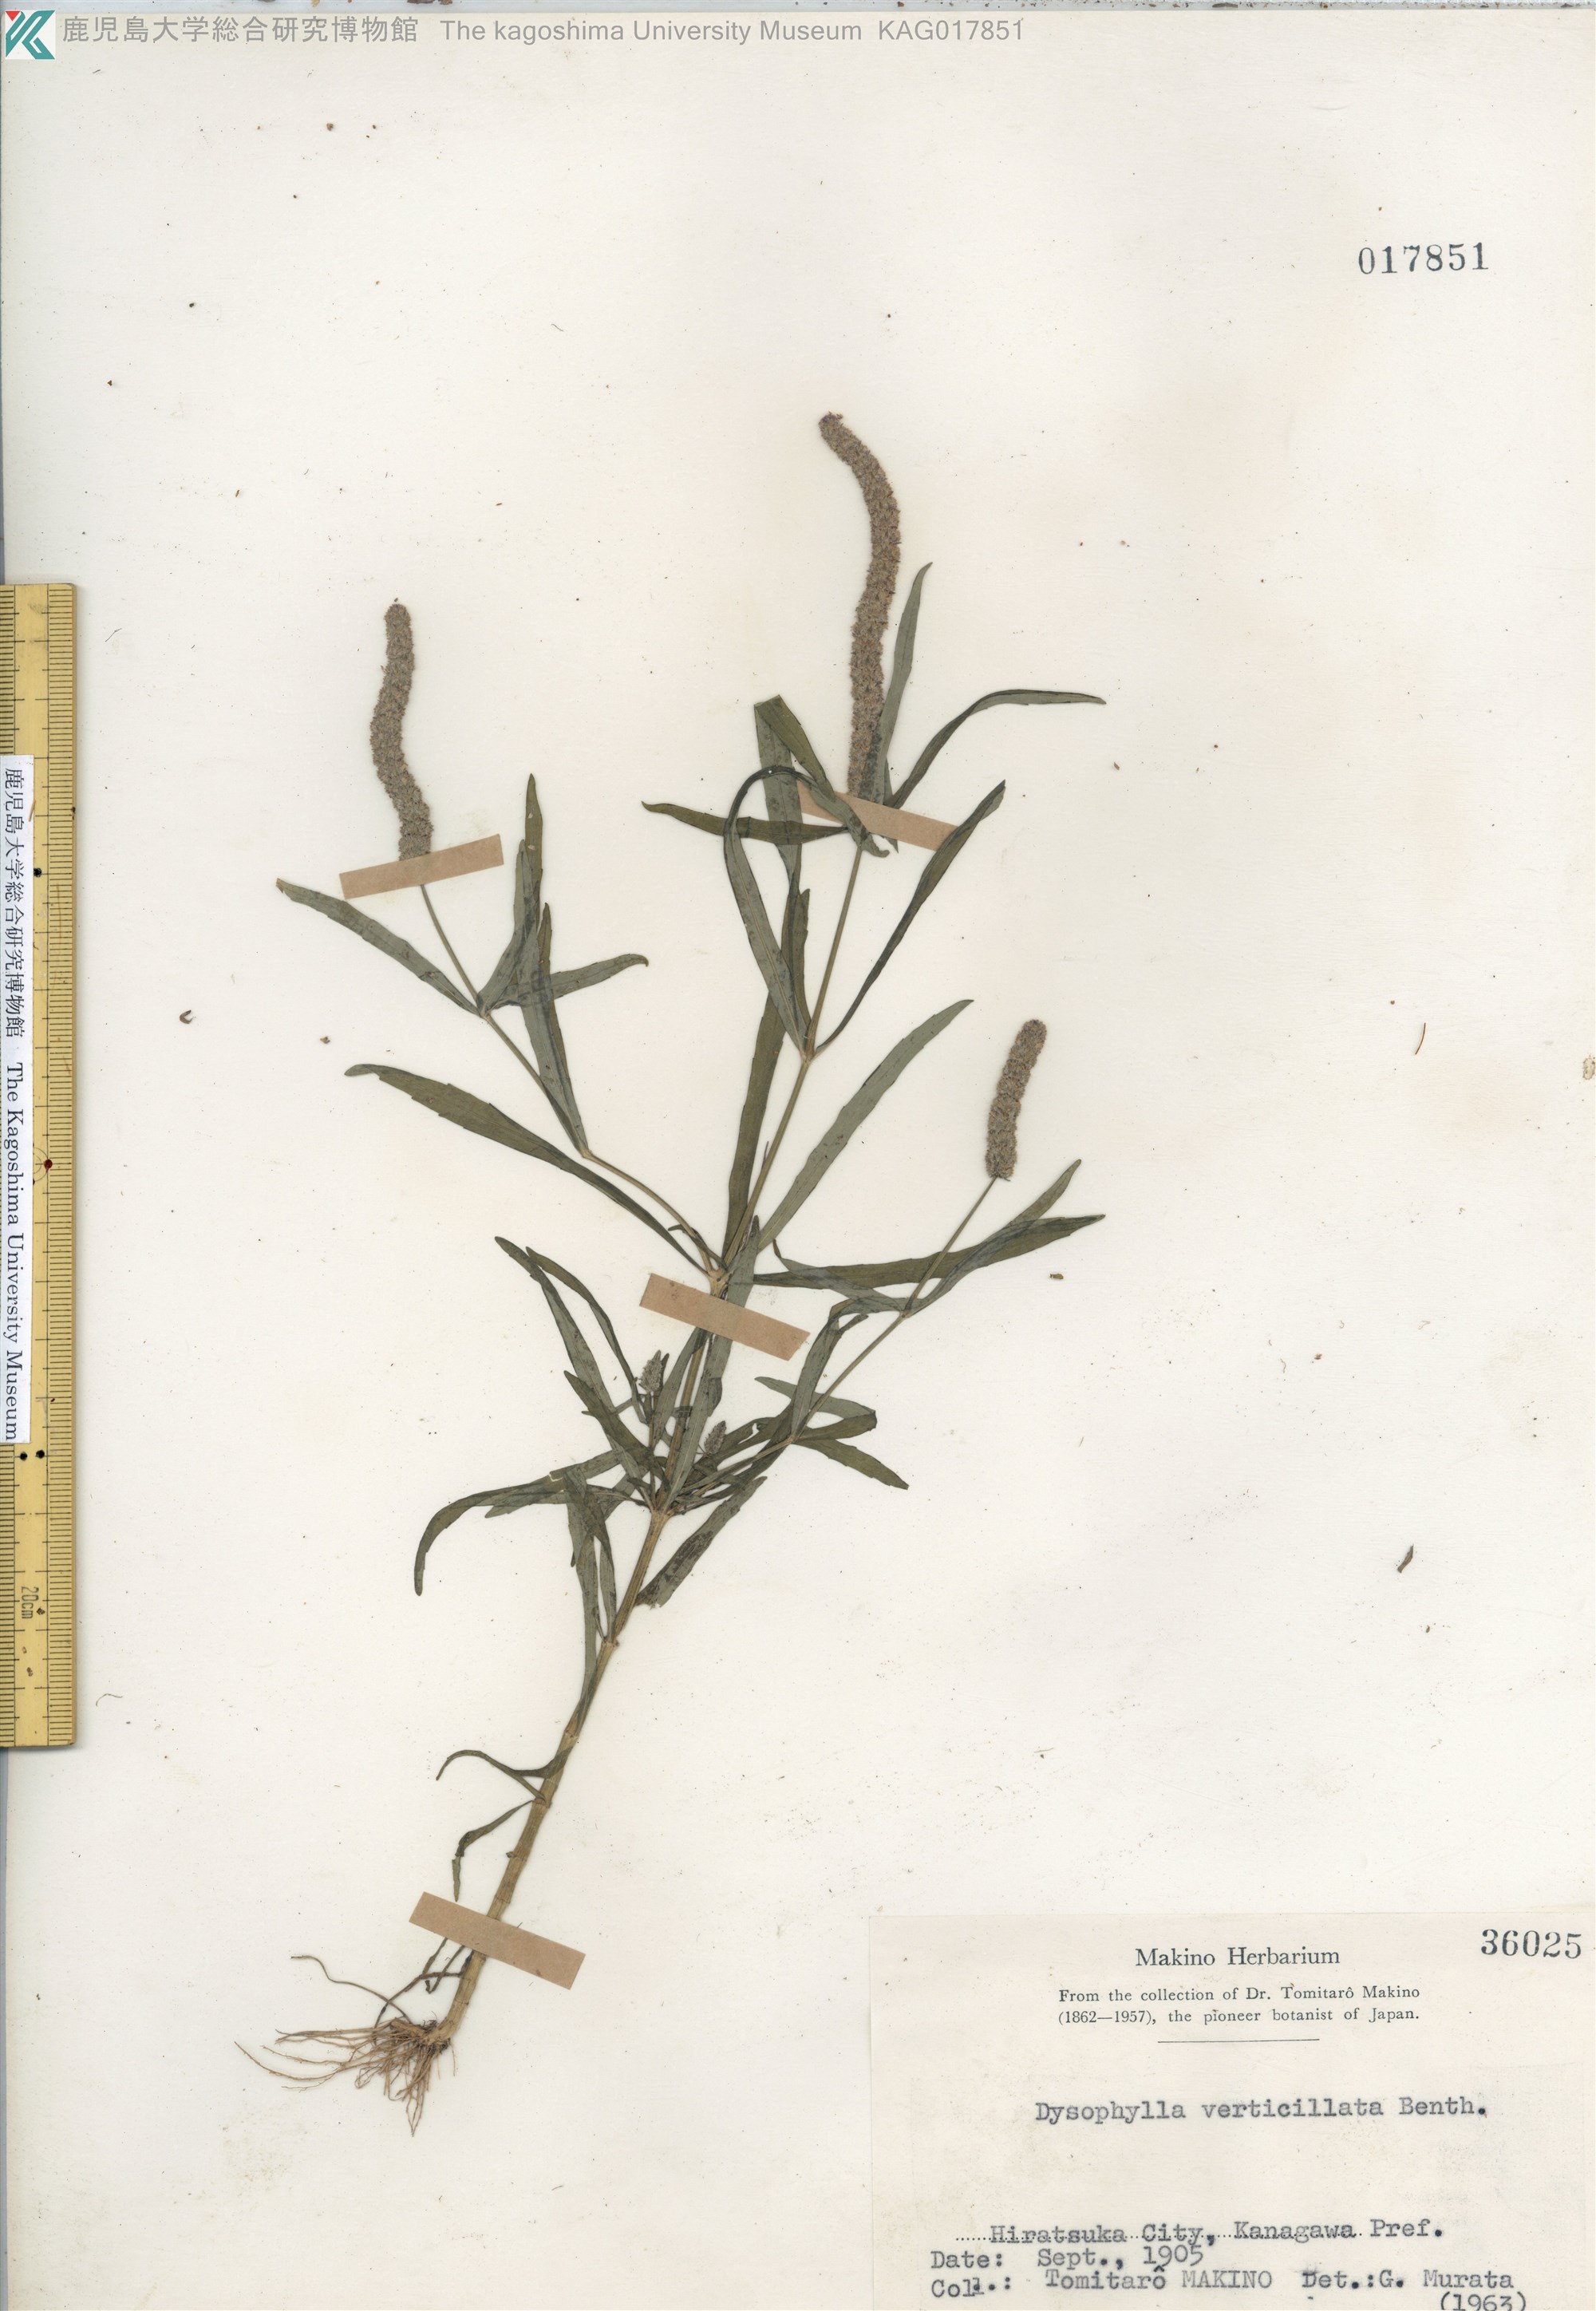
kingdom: Plantae
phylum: Tracheophyta
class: Magnoliopsida
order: Lamiales
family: Lamiaceae
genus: Pogostemon
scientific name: Pogostemon stellatus
